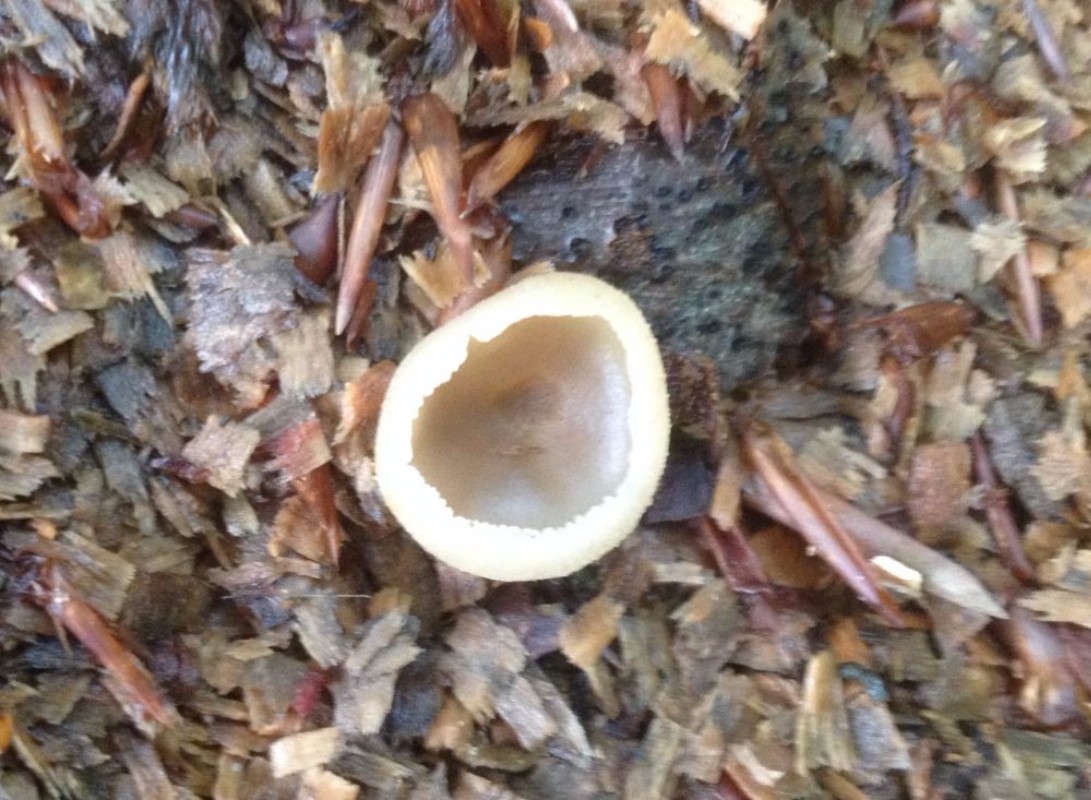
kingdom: Fungi
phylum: Ascomycota
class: Pezizomycetes
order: Pezizales
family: Pezizaceae
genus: Peziza
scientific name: Peziza
